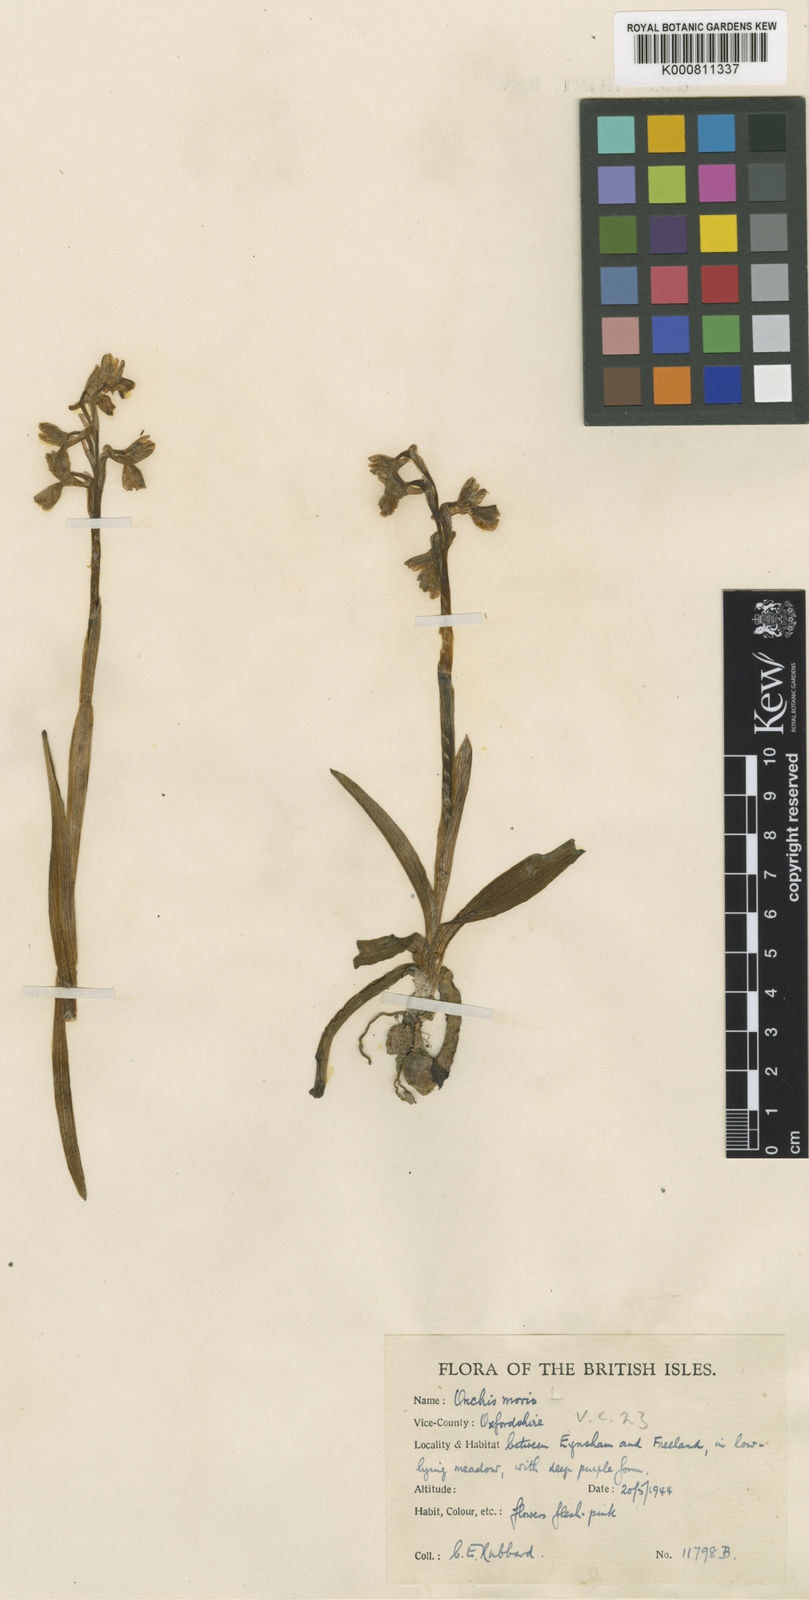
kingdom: Plantae
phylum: Tracheophyta
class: Liliopsida
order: Asparagales
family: Orchidaceae
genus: Anacamptis
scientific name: Anacamptis morio
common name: Green-winged orchid
